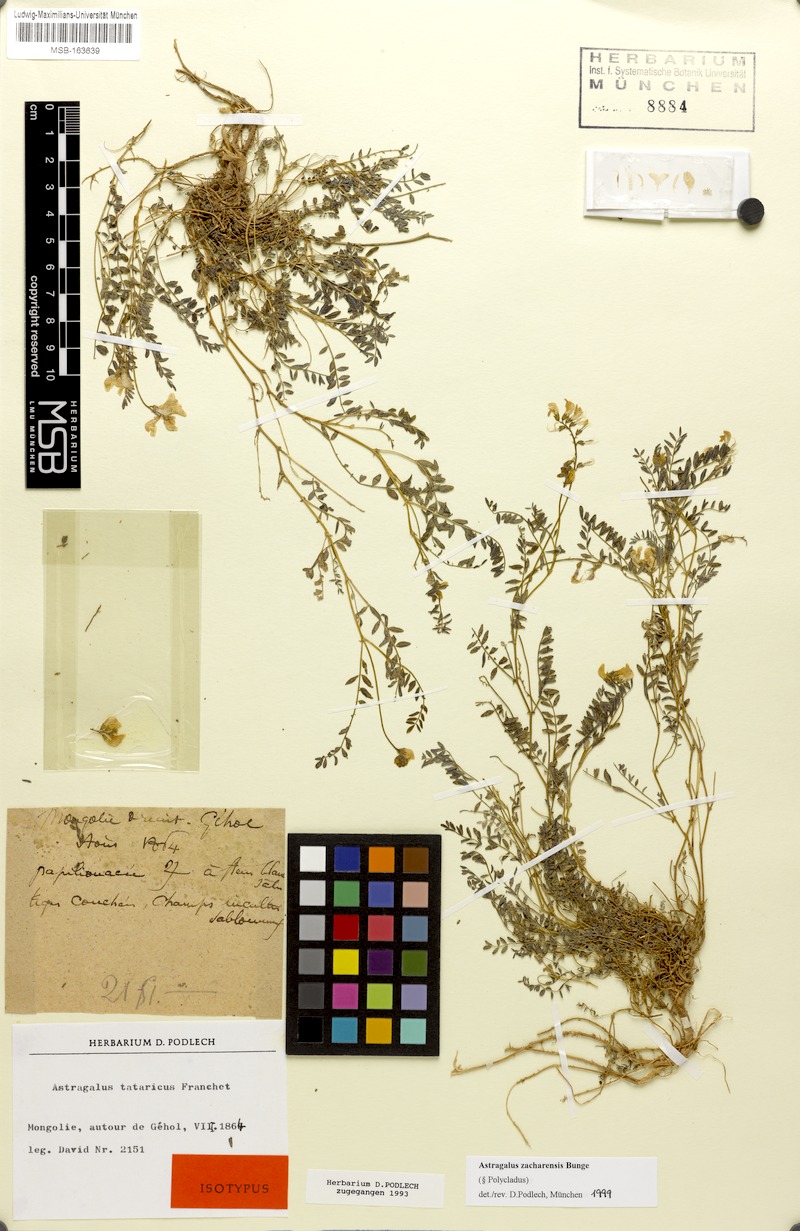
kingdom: Plantae
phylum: Tracheophyta
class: Magnoliopsida
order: Fabales
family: Fabaceae
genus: Astragalus
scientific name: Astragalus zacharensis
